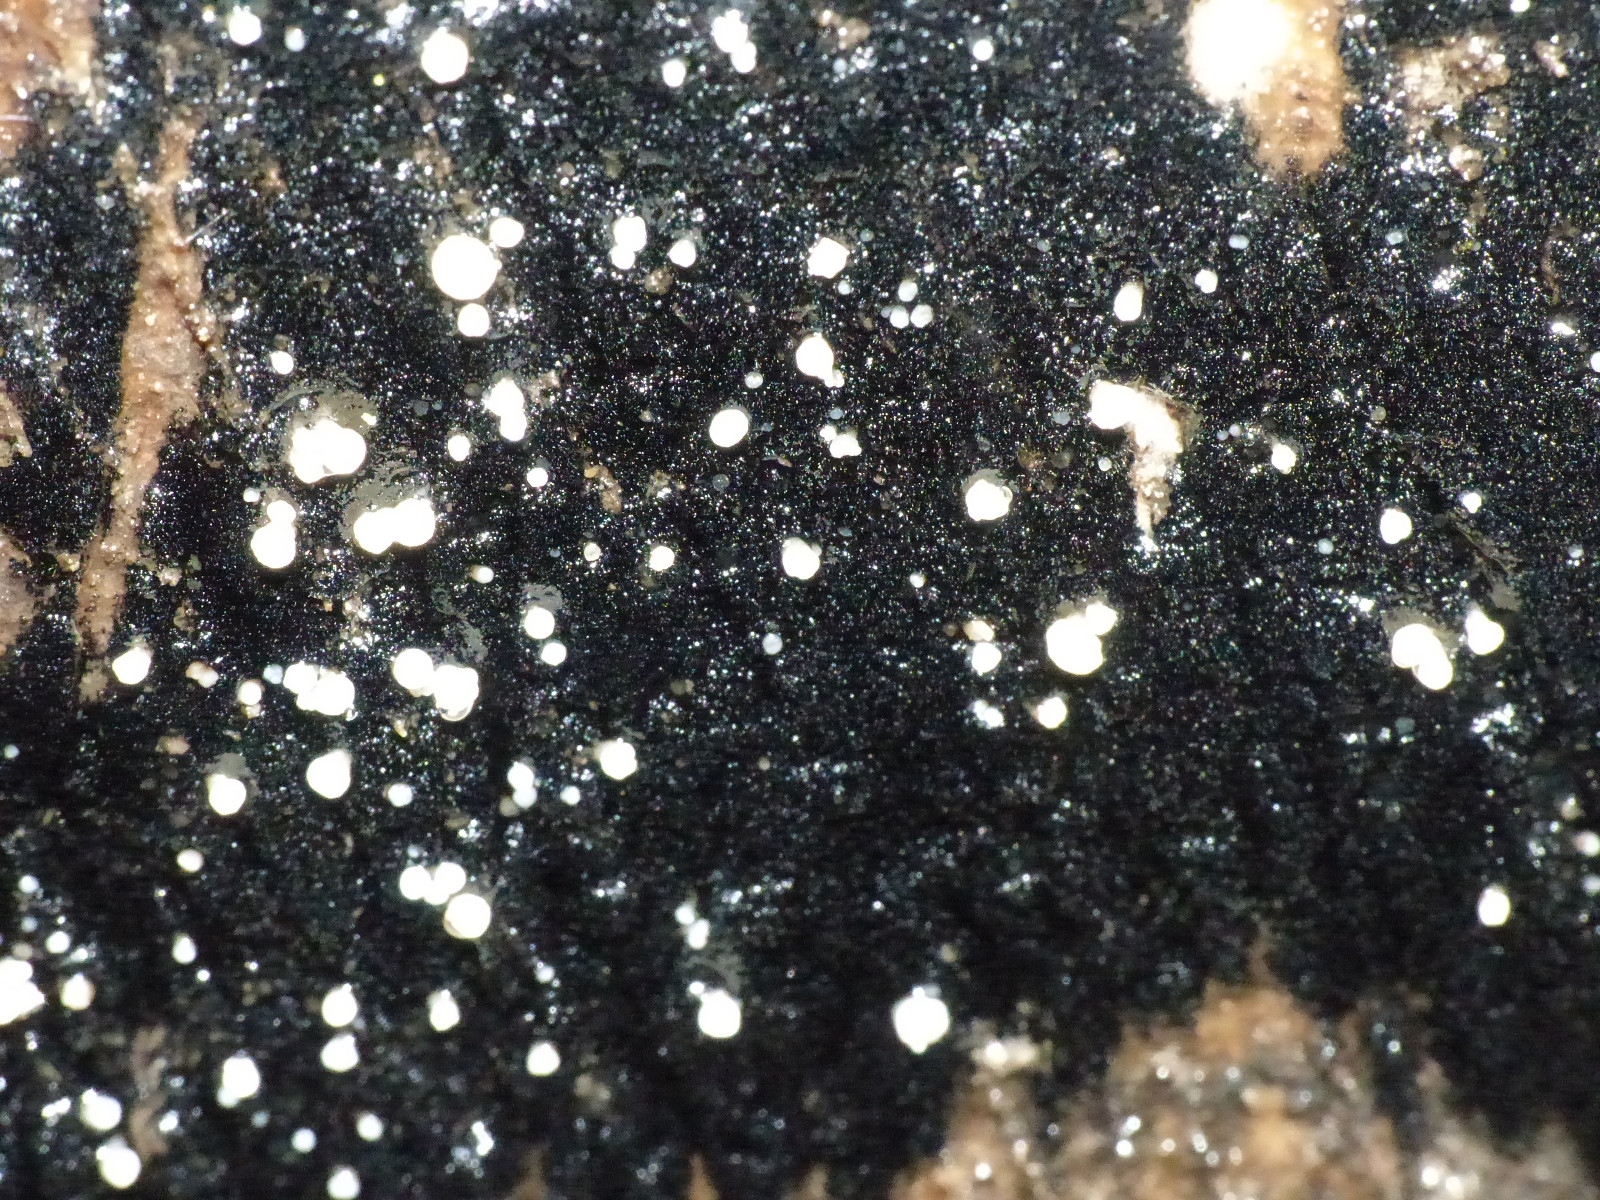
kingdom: Fungi
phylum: Ascomycota
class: Leotiomycetes
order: Helotiales
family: Helotiaceae
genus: Bispora
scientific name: Bispora pallescens
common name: måtte-snitskive
